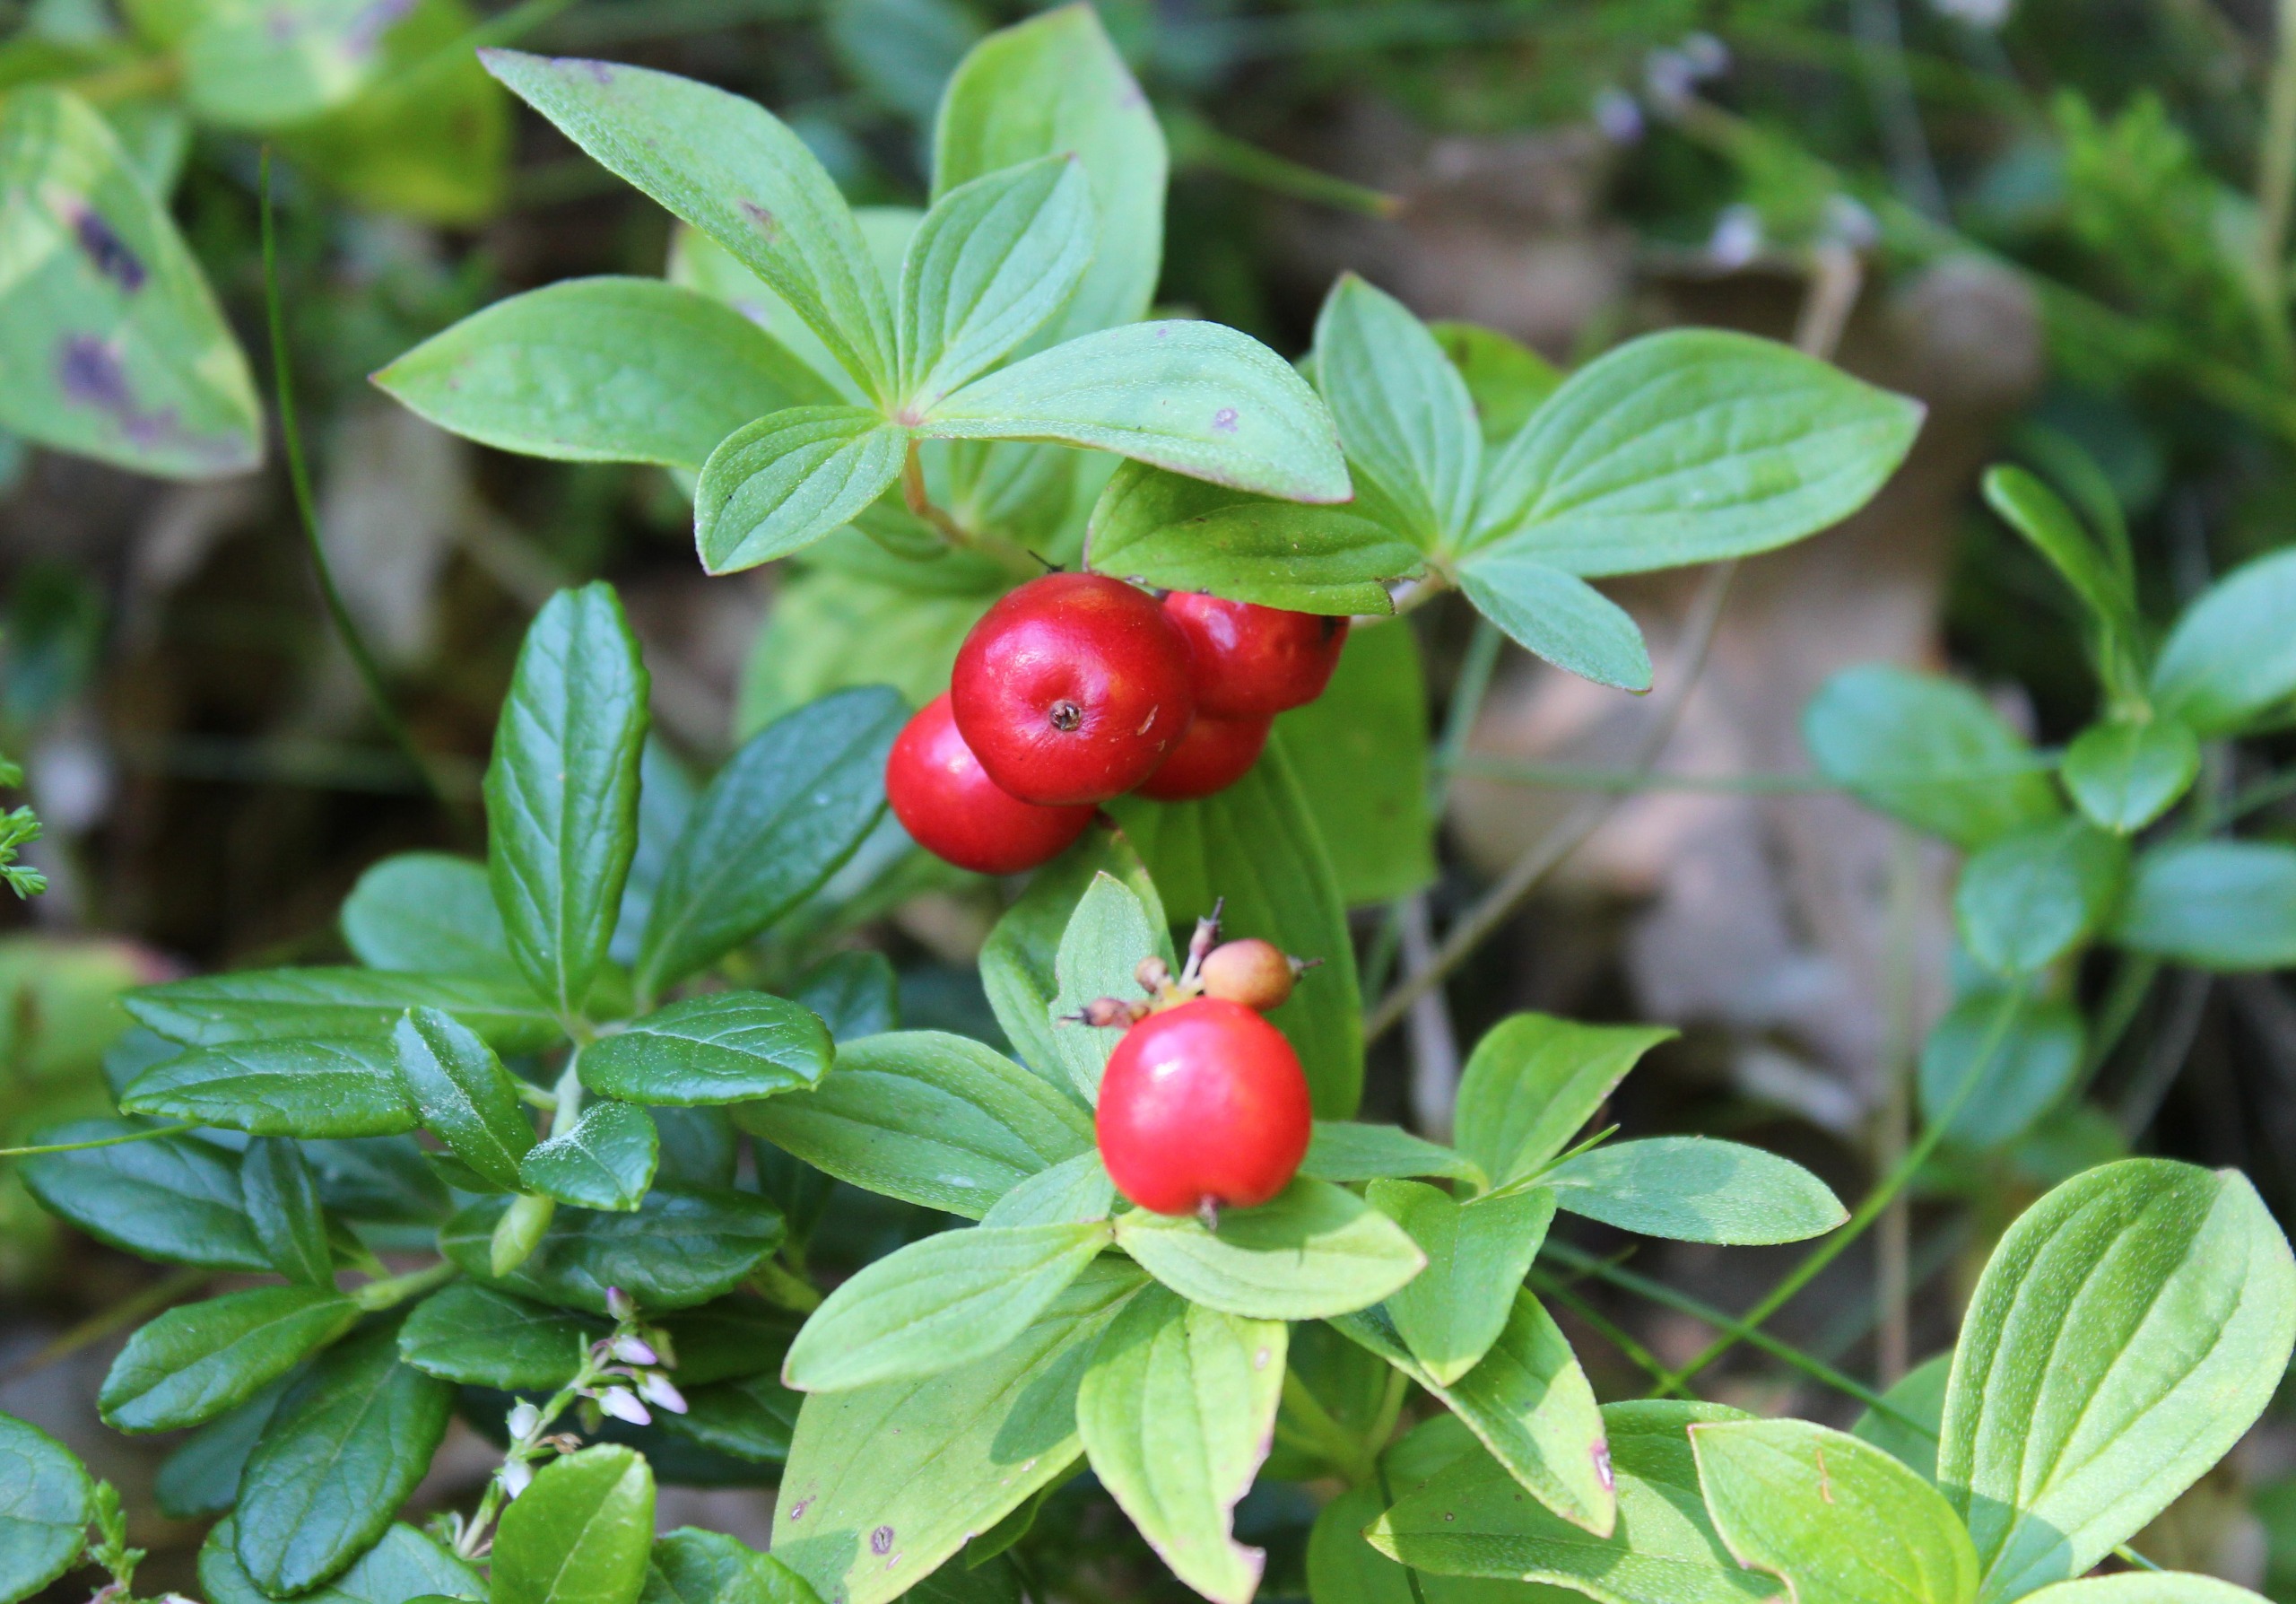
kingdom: Plantae
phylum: Tracheophyta
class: Magnoliopsida
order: Cornales
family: Cornaceae
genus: Cornus
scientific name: Cornus suecica
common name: Hønsebær
